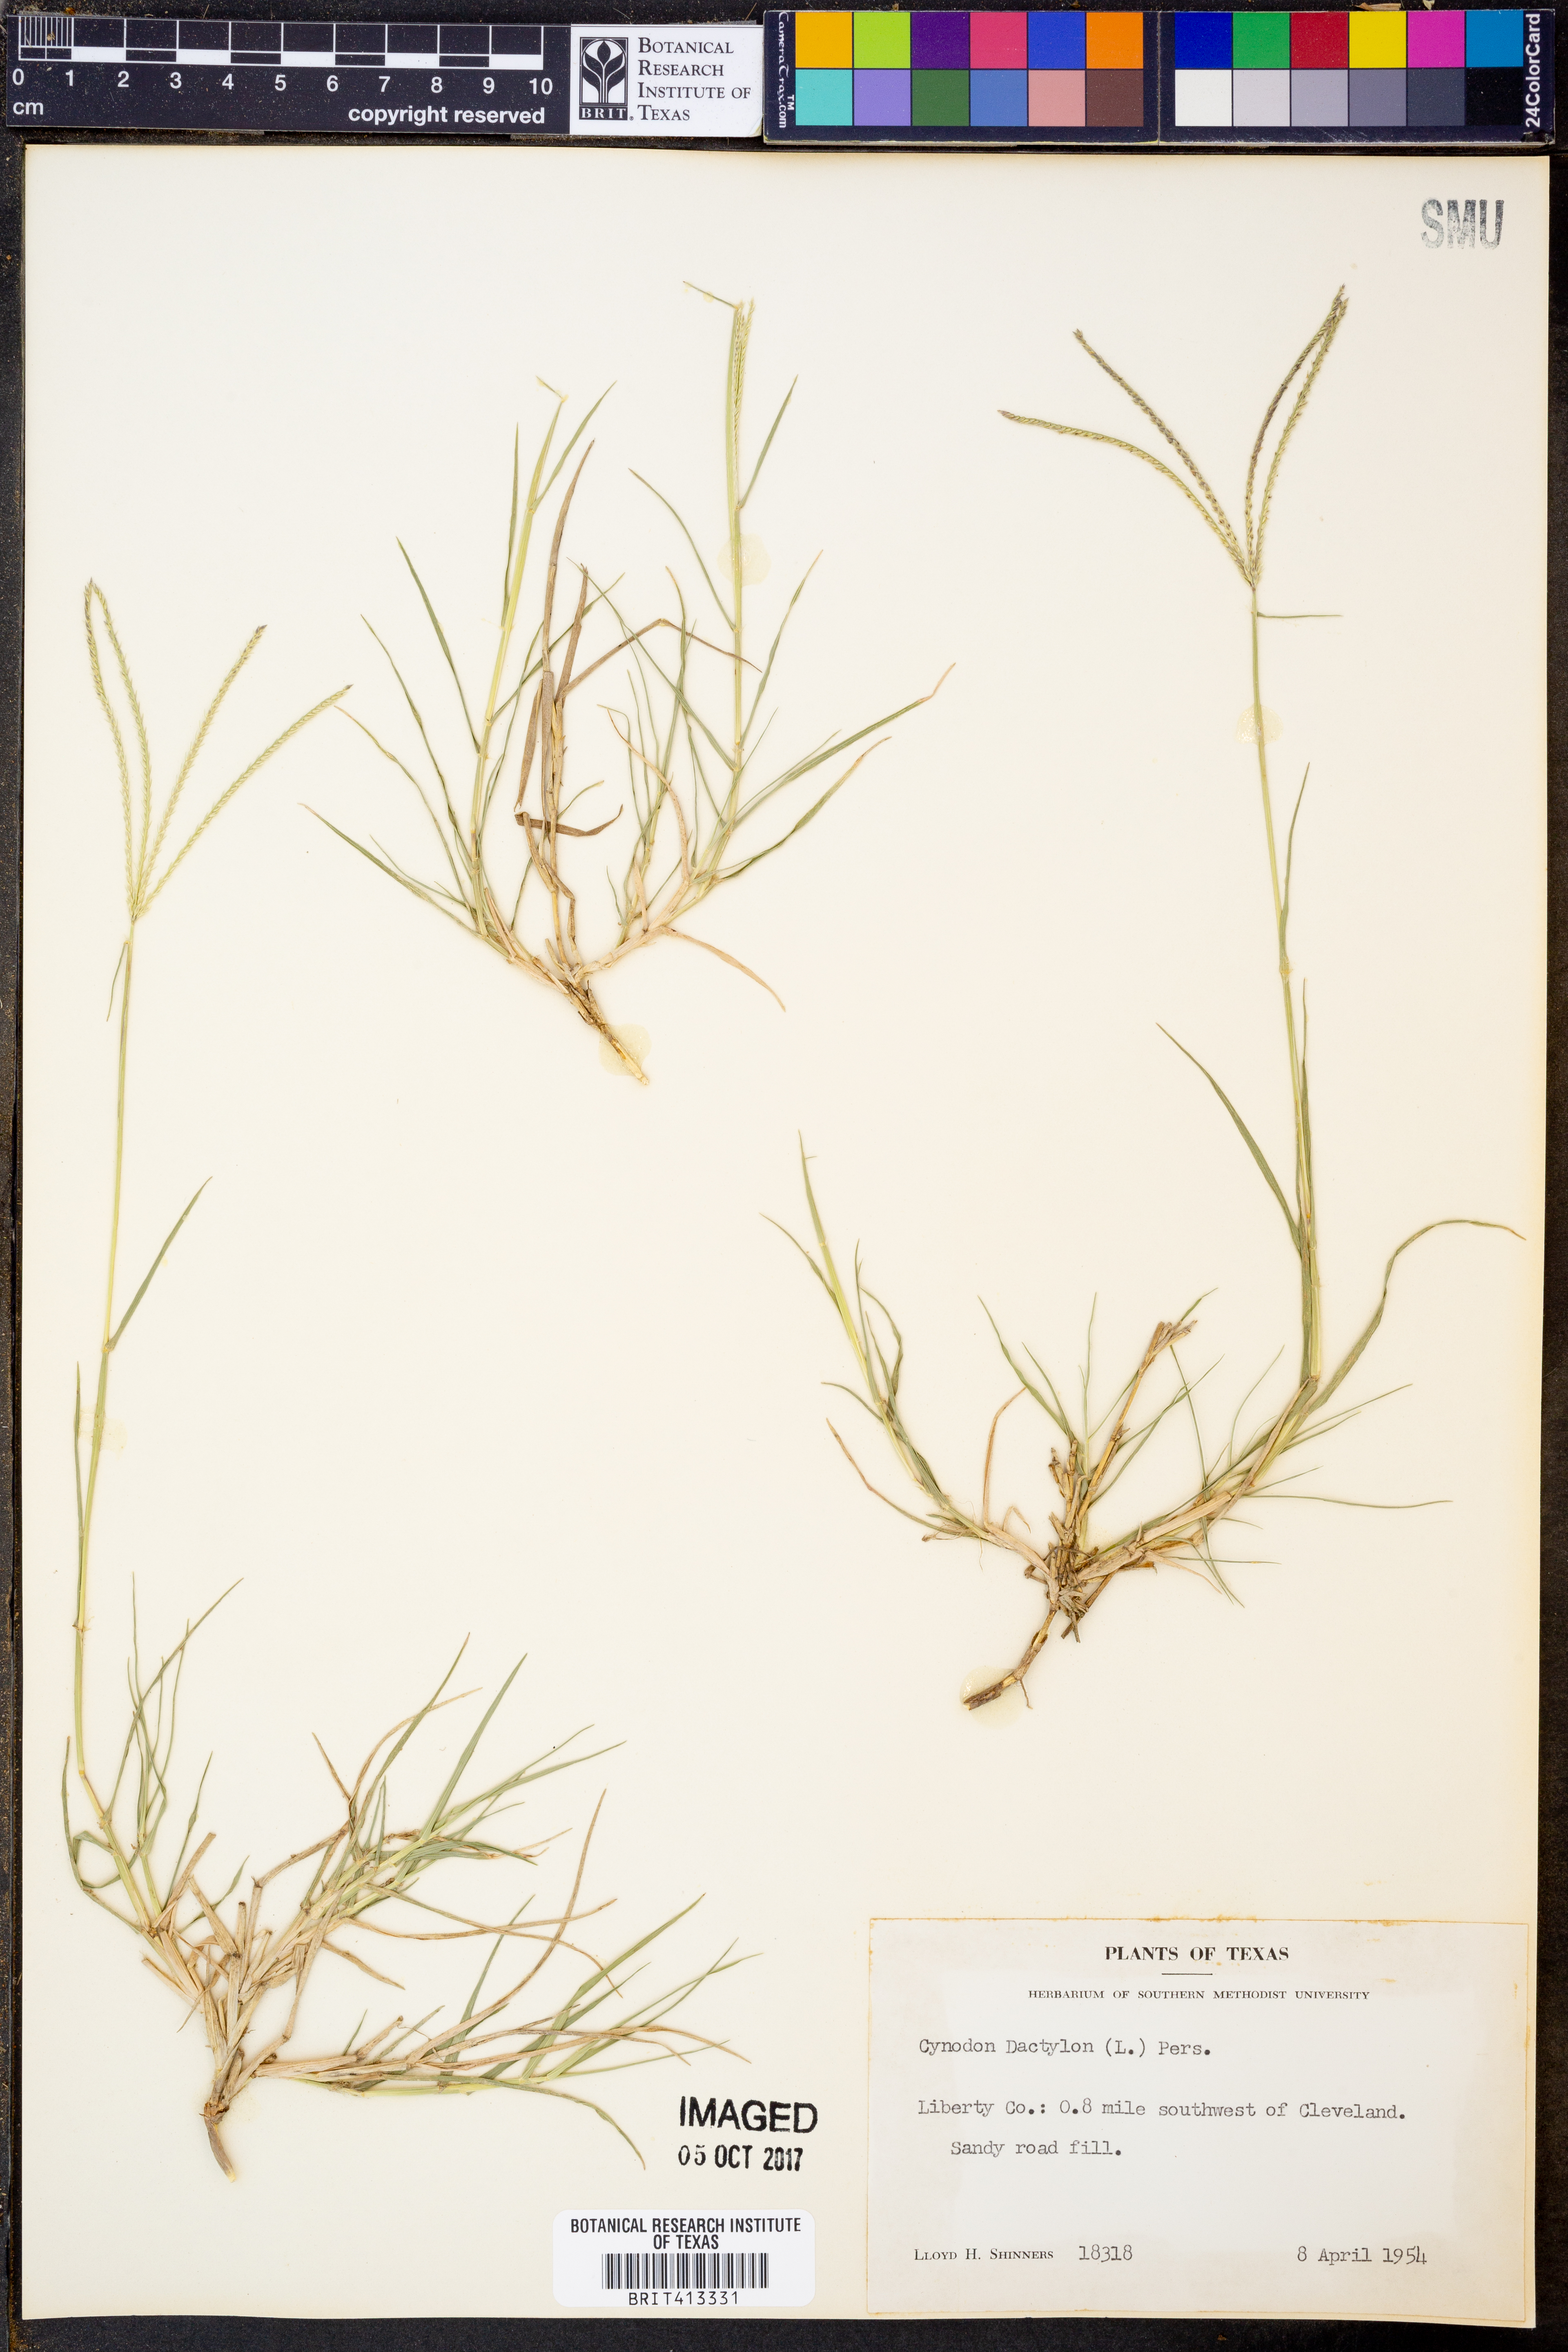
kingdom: Plantae
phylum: Tracheophyta
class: Liliopsida
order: Poales
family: Poaceae
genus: Cynodon
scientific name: Cynodon dactylon
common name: Bermuda grass
